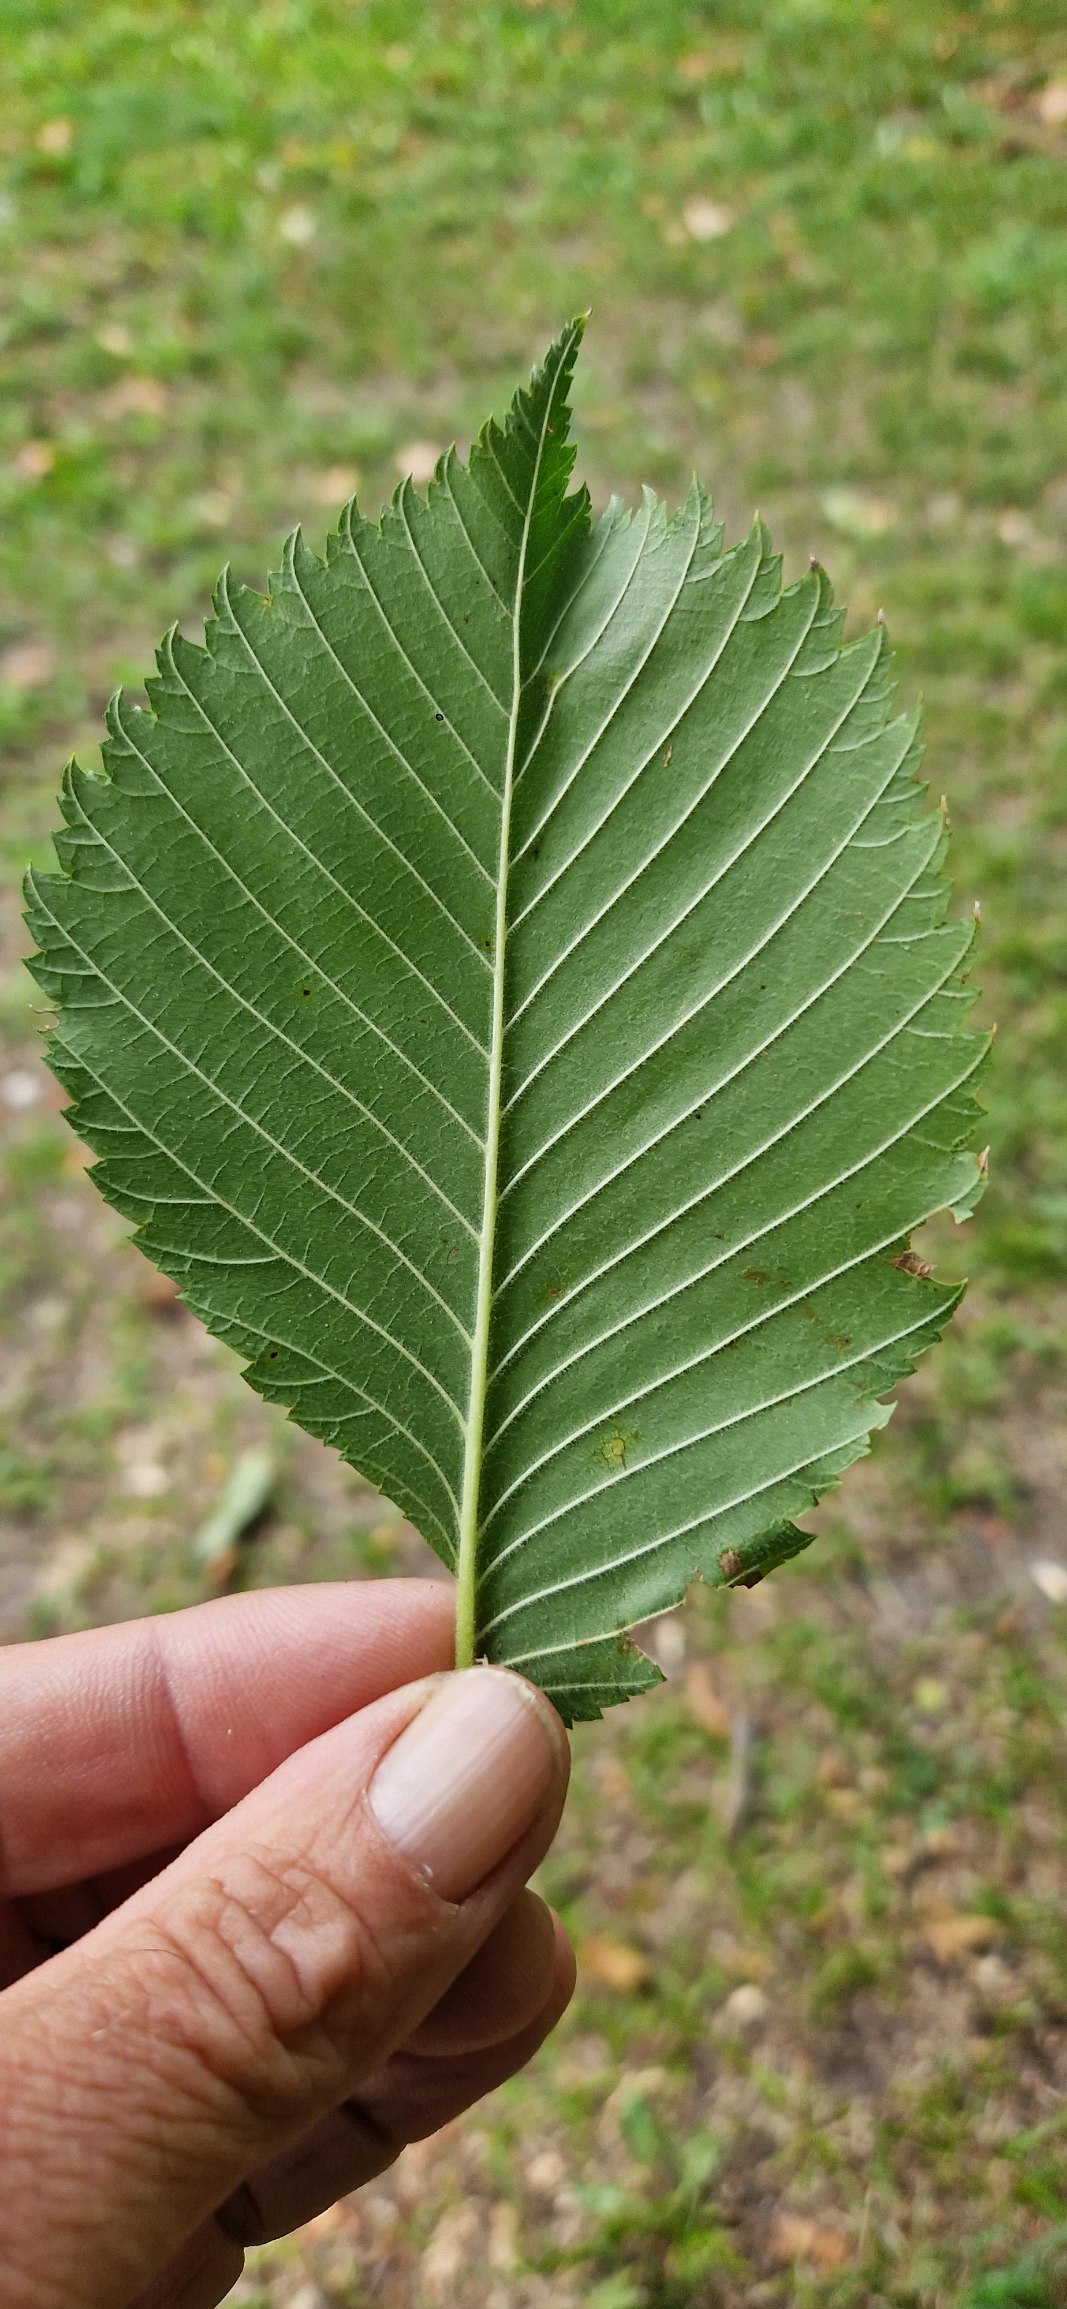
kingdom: Plantae
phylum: Tracheophyta
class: Magnoliopsida
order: Rosales
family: Ulmaceae
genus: Ulmus
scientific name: Ulmus laevis
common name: Skærm-elm
